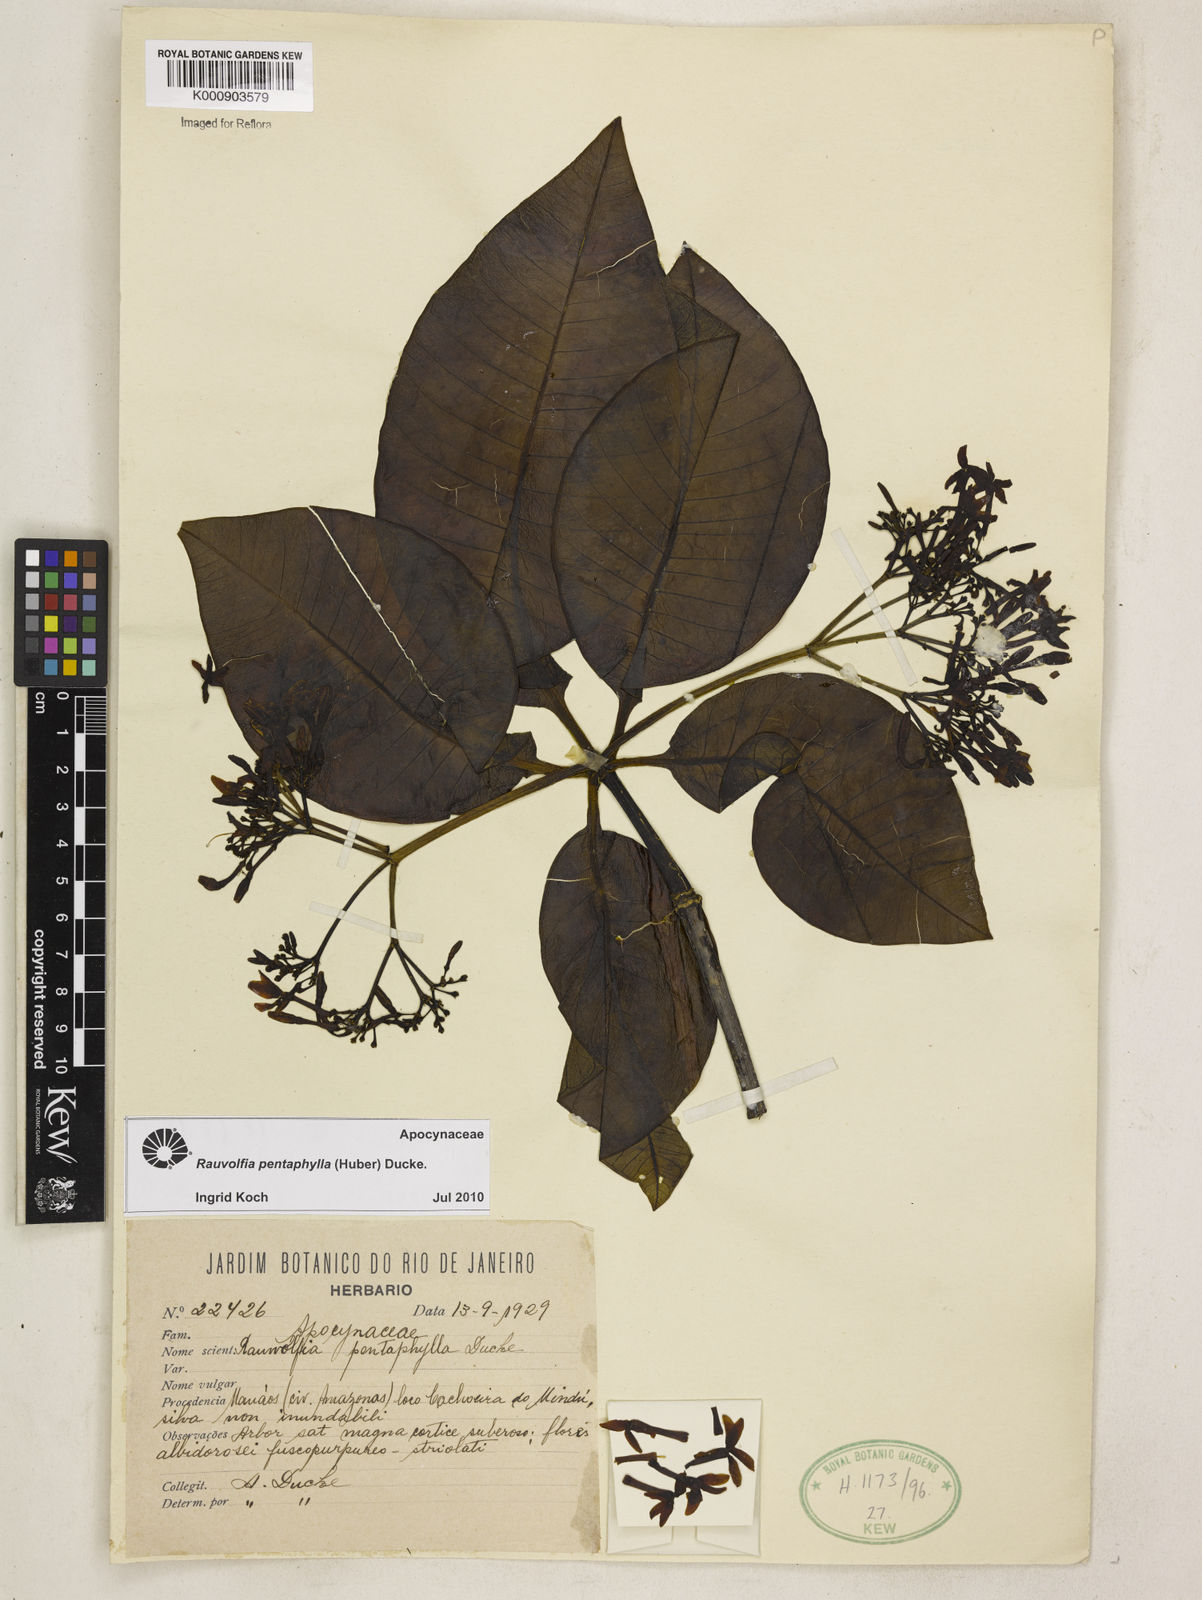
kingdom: Plantae
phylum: Tracheophyta
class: Magnoliopsida
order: Gentianales
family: Apocynaceae
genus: Rauvolfia
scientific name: Rauvolfia pentaphylla
